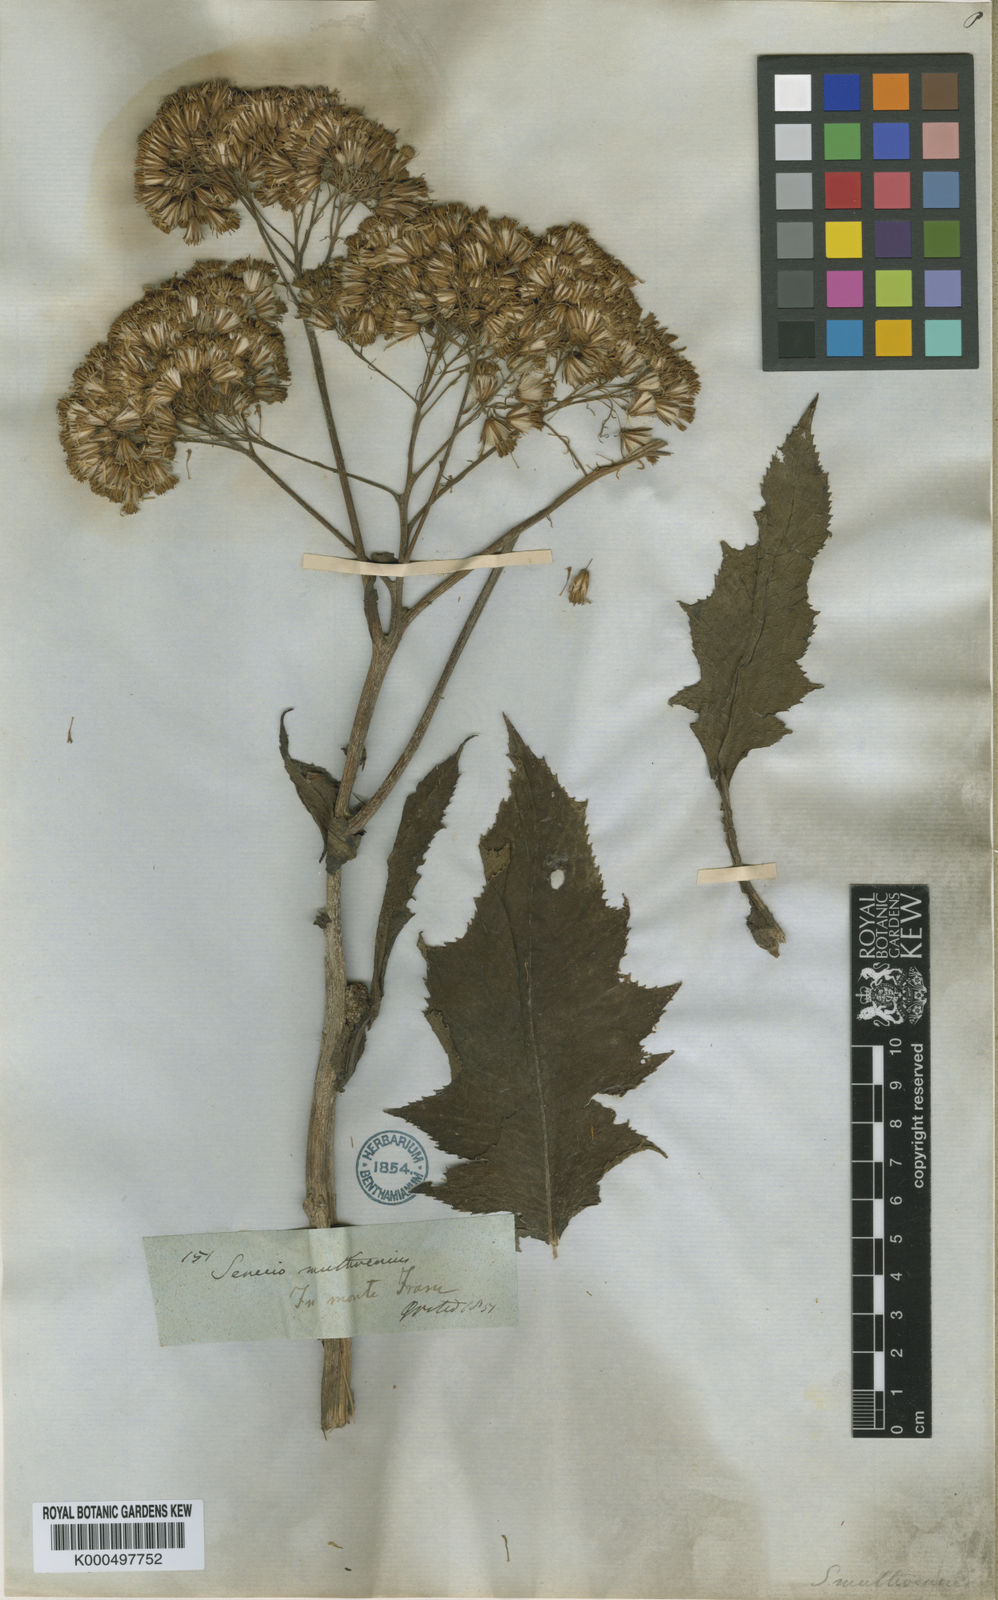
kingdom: Plantae
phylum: Tracheophyta
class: Magnoliopsida
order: Asterales
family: Asteraceae
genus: Jessea
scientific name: Jessea multivenia
